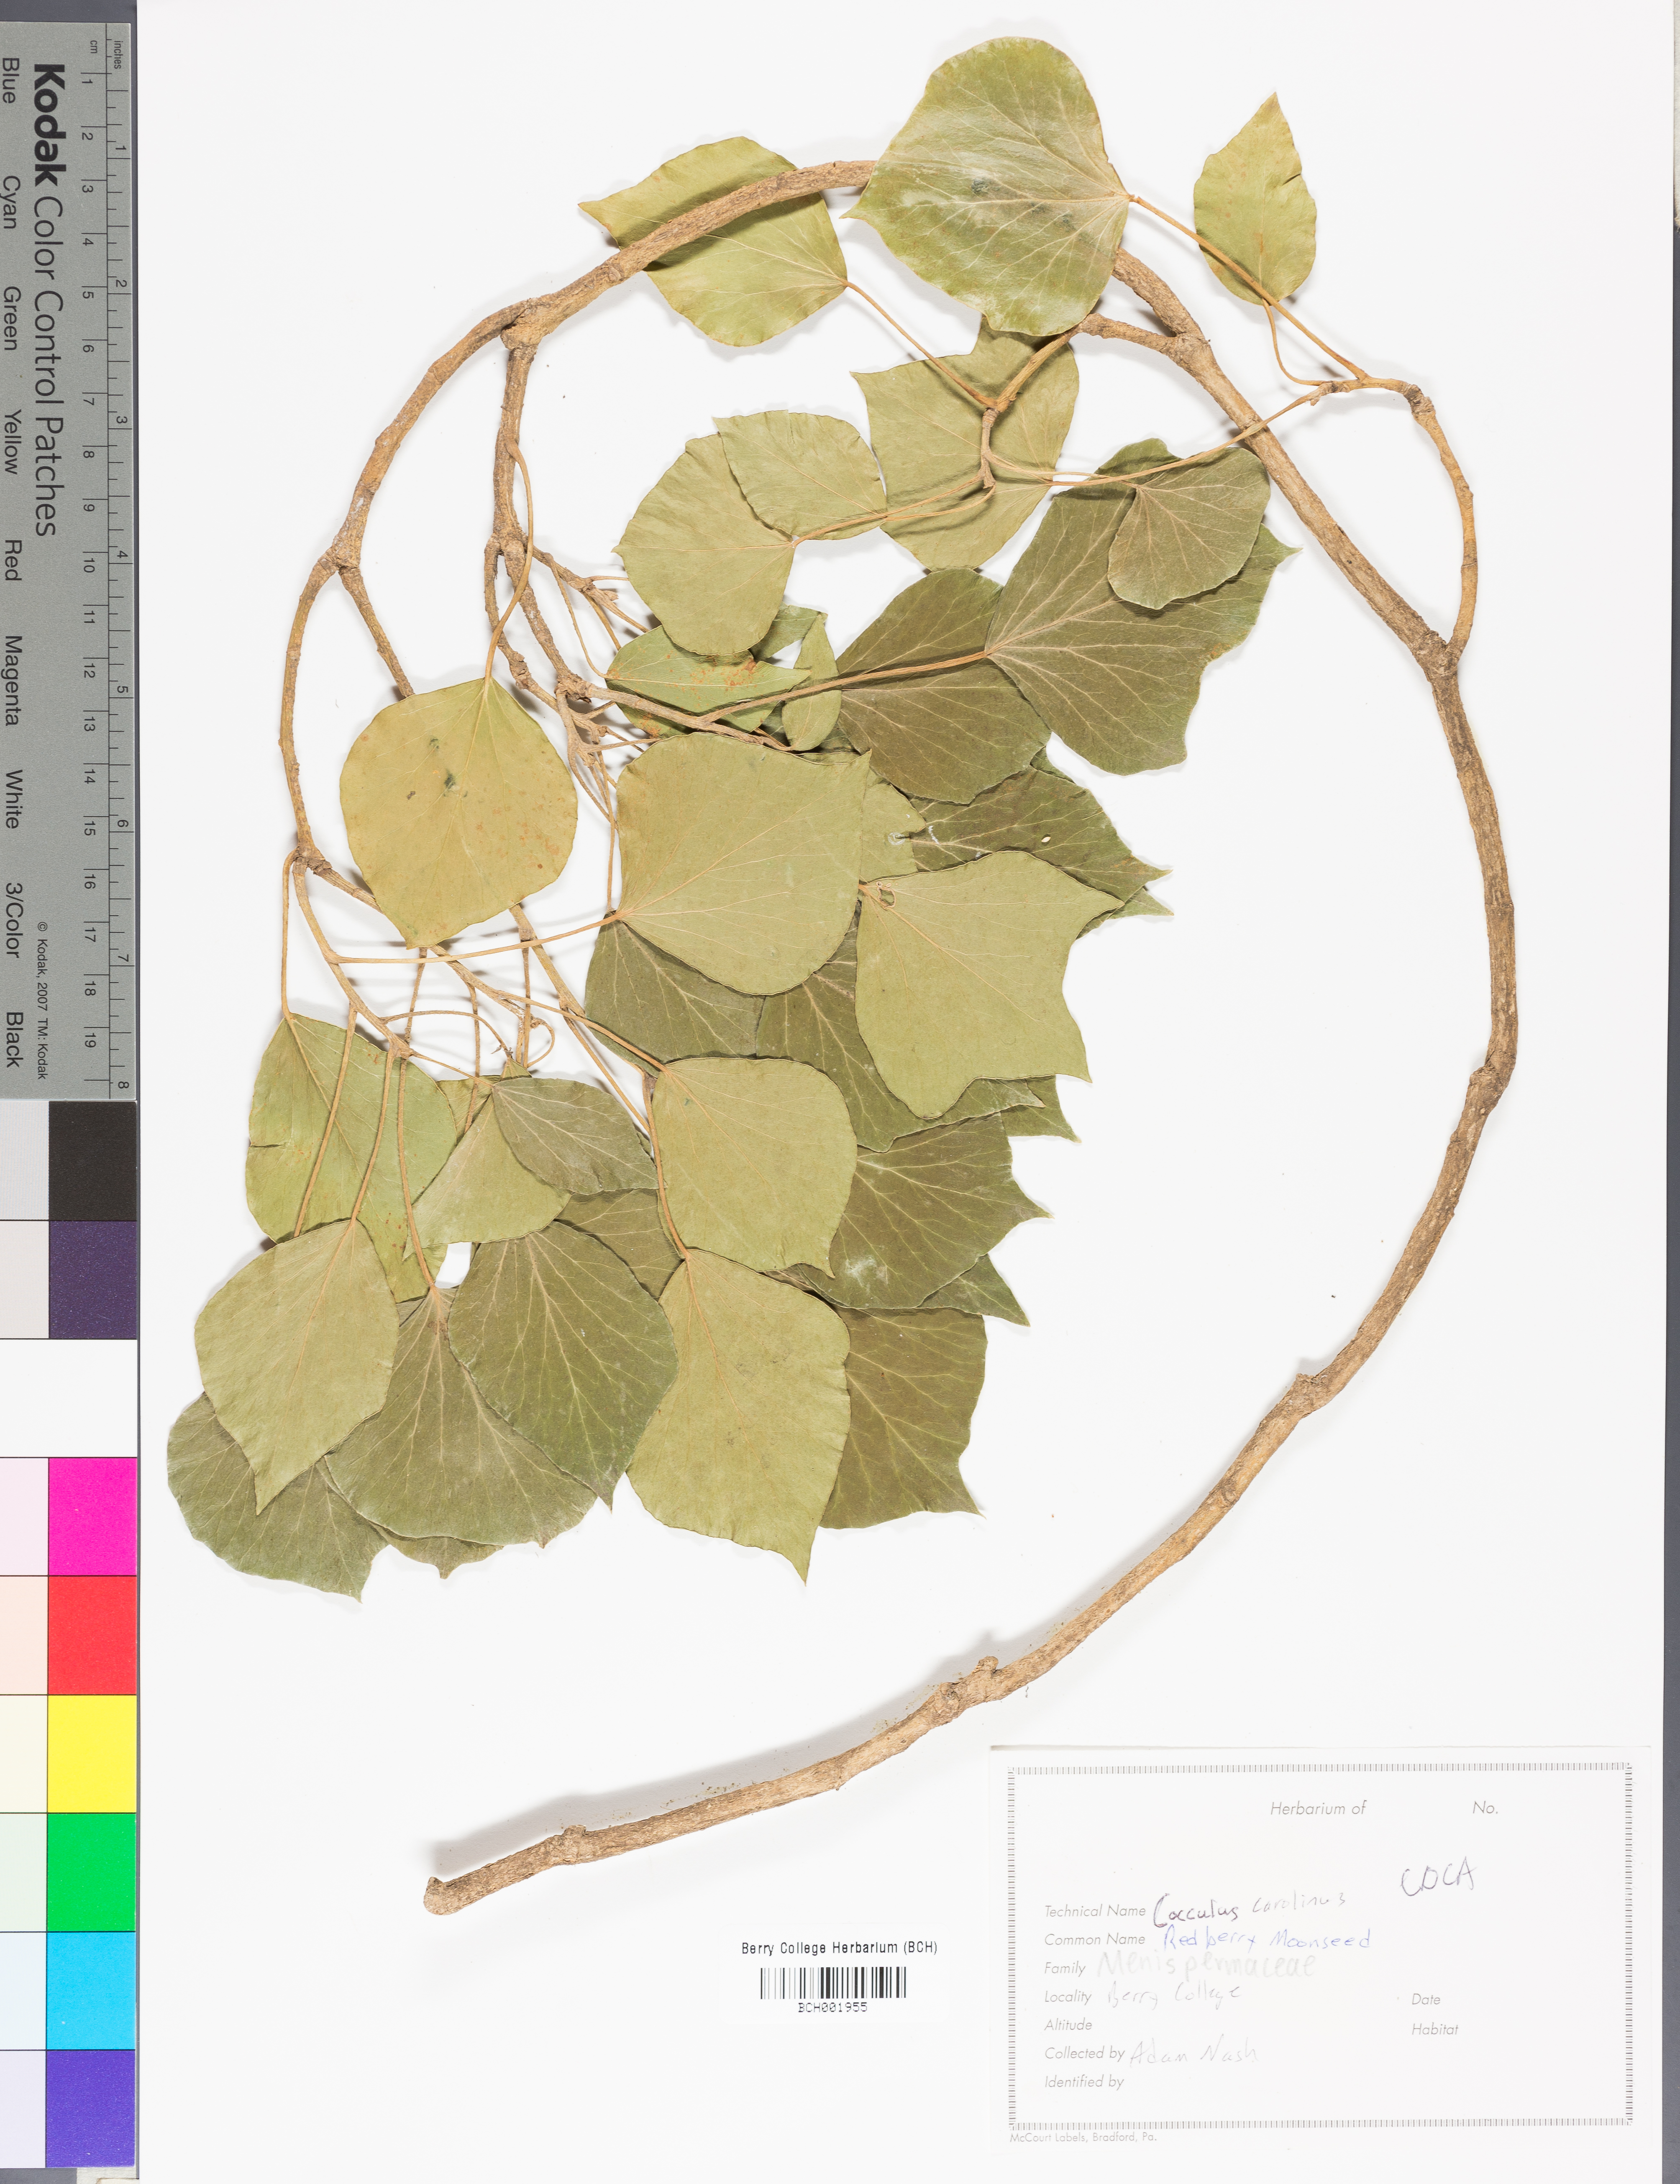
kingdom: Plantae
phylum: Tracheophyta
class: Magnoliopsida
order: Ranunculales
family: Menispermaceae
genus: Cocculus
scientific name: Cocculus carolinus
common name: Carolina moonseed
